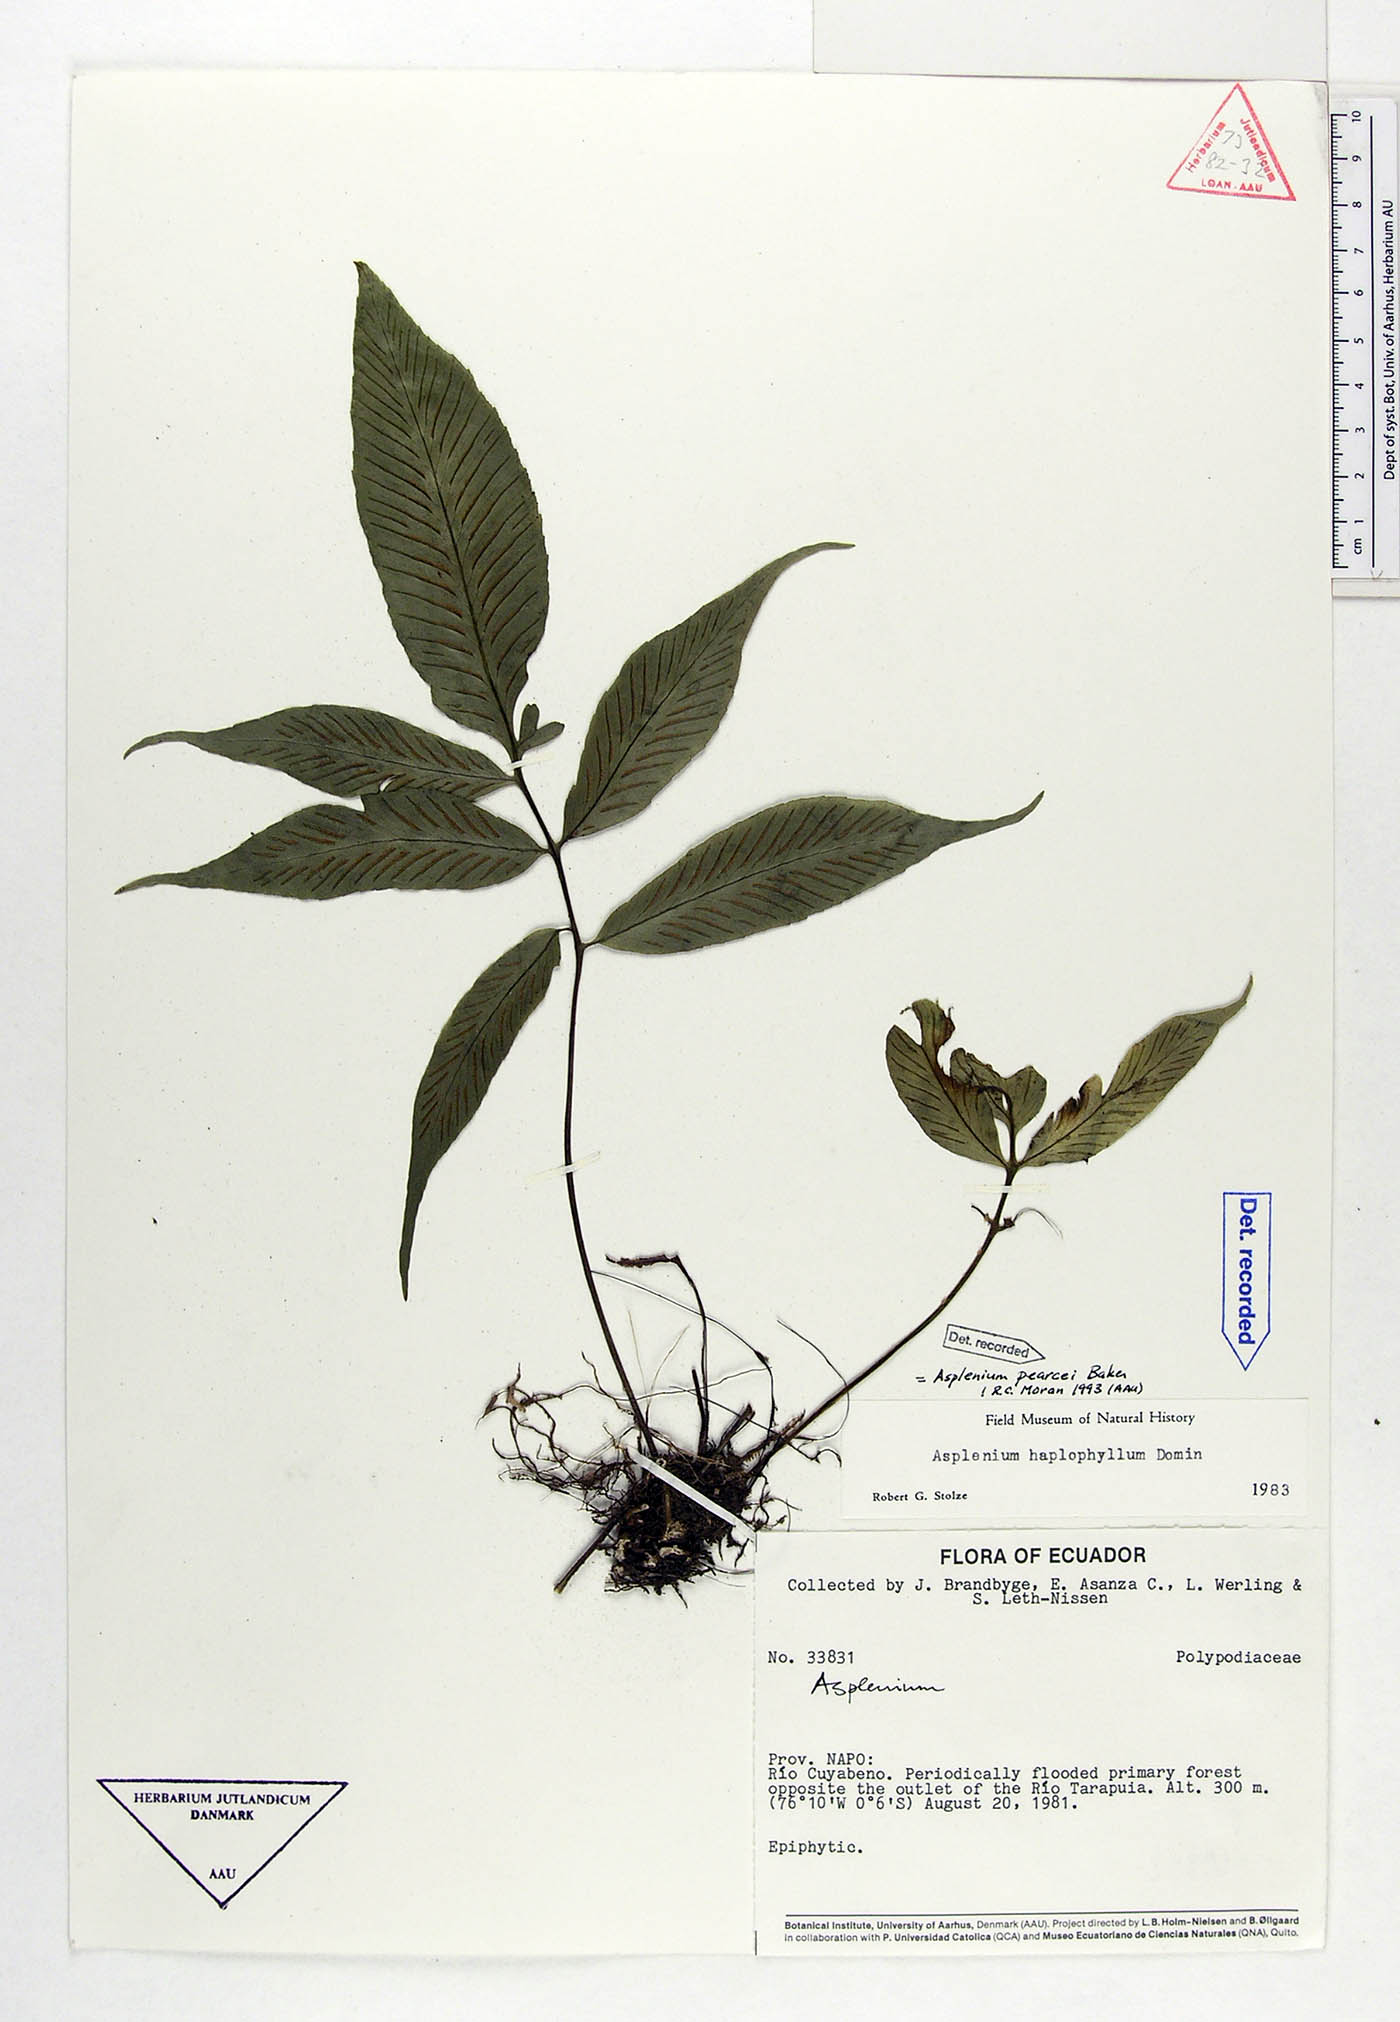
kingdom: Plantae
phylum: Tracheophyta
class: Polypodiopsida
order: Polypodiales
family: Aspleniaceae
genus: Asplenium
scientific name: Asplenium pearcei
